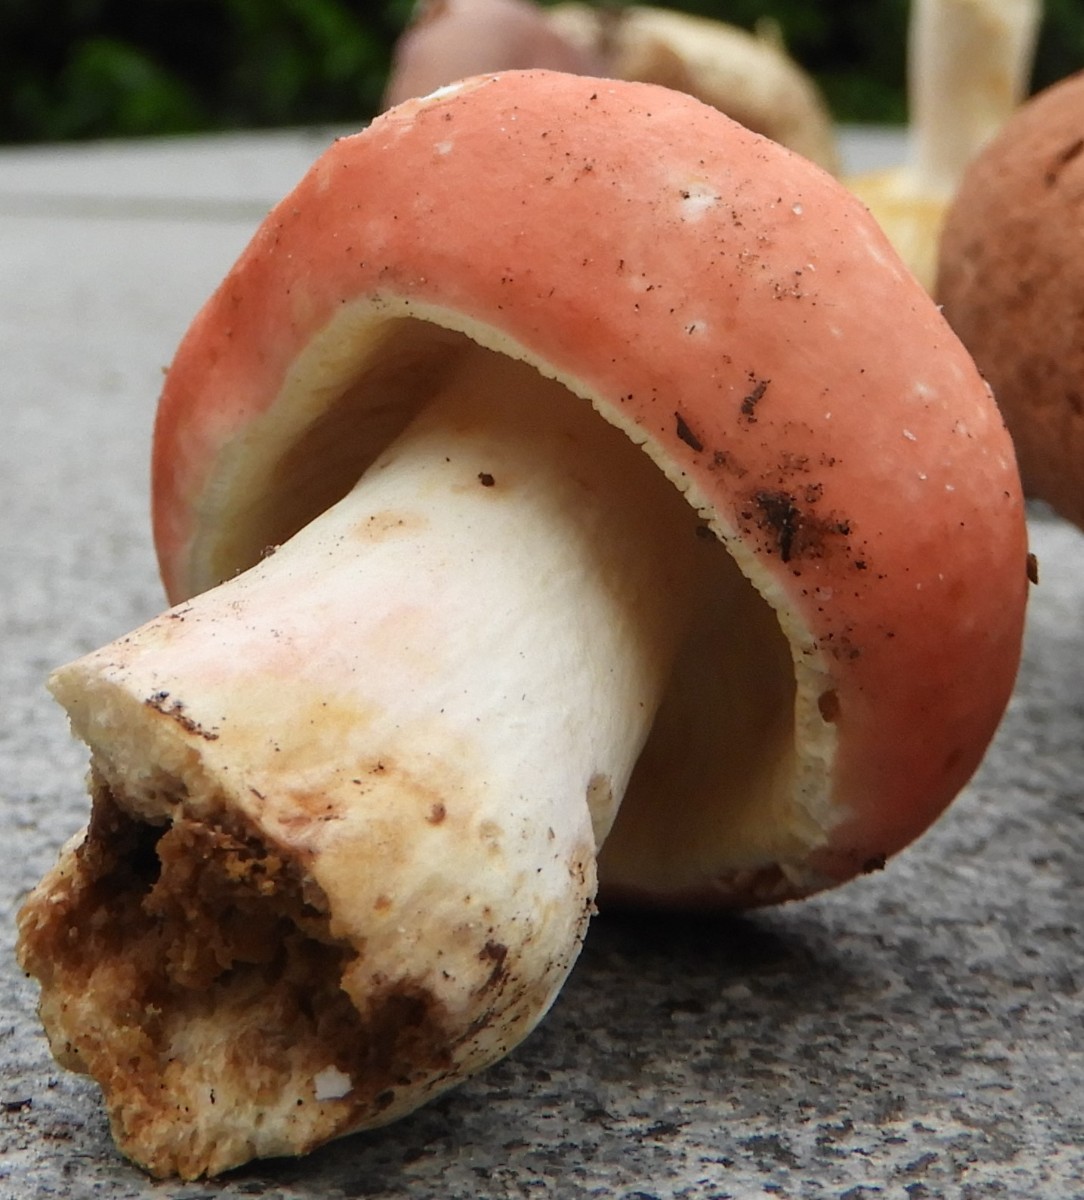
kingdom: Fungi
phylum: Basidiomycota
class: Agaricomycetes
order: Russulales
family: Russulaceae
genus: Russula
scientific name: Russula rosea
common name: fastkødet skørhat
